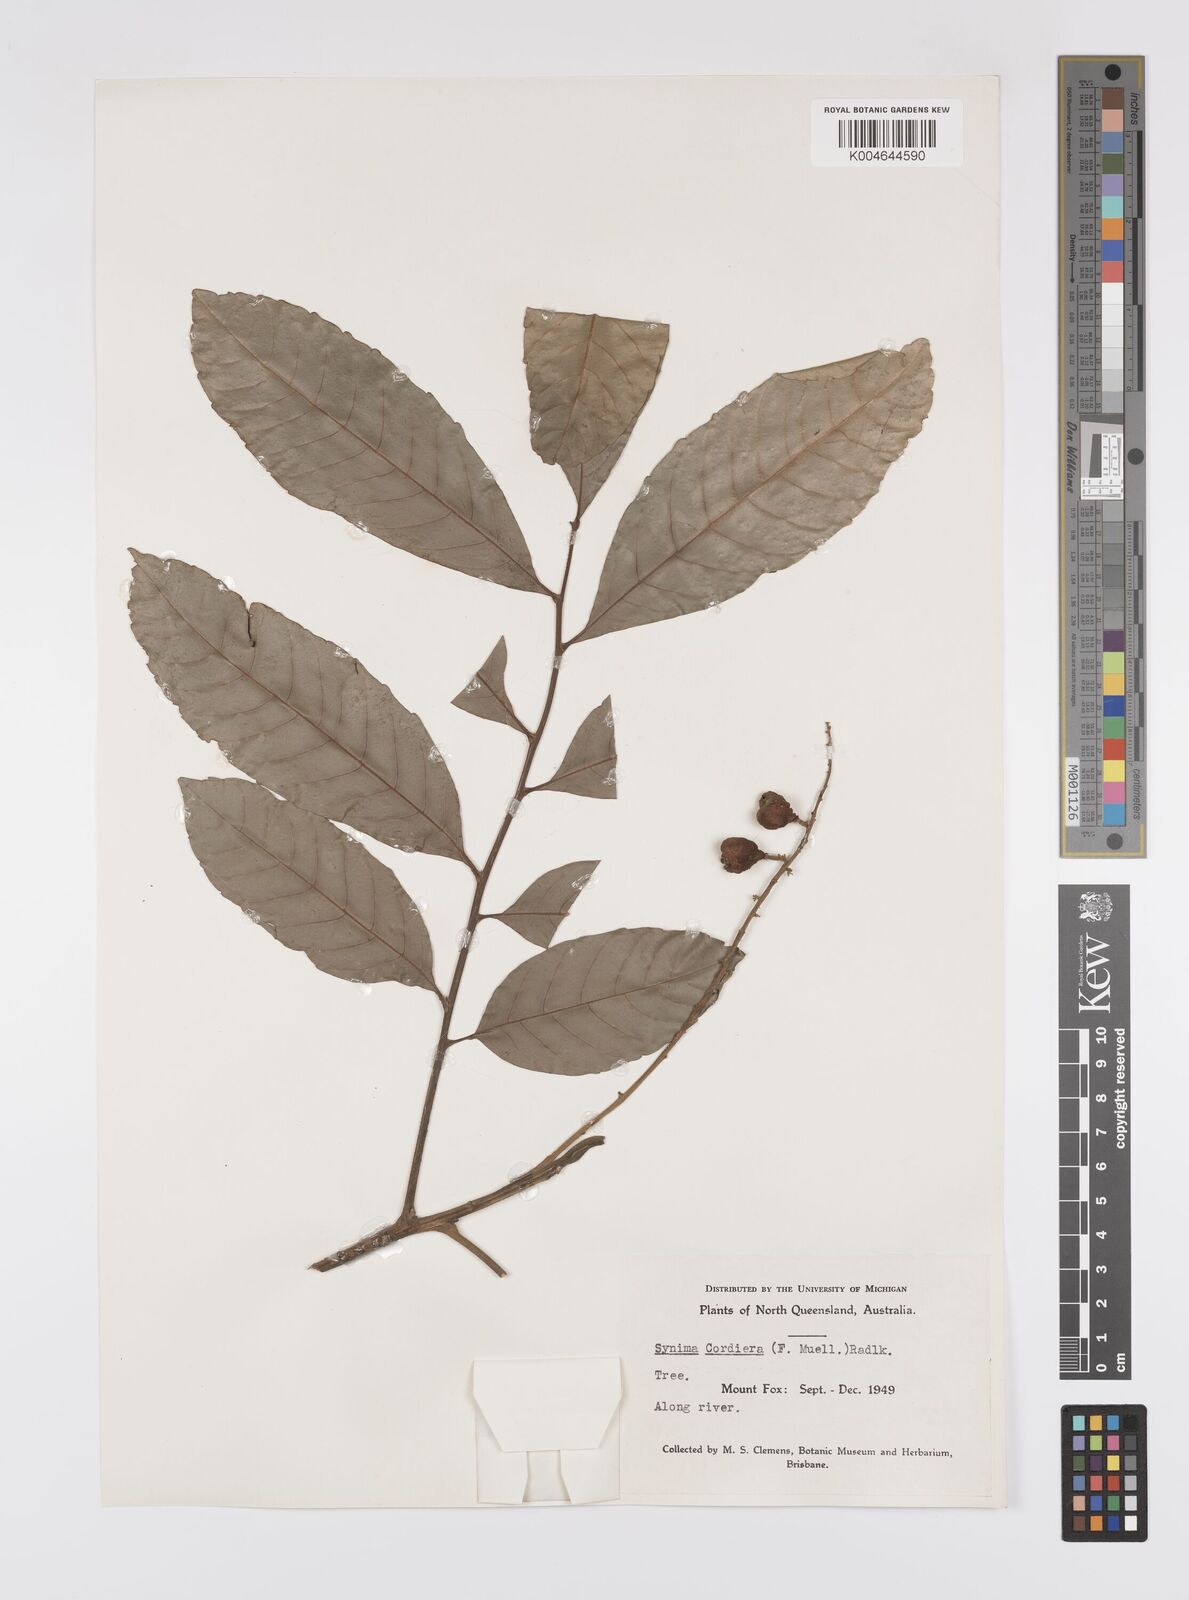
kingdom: Plantae
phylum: Tracheophyta
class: Magnoliopsida
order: Sapindales
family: Sapindaceae
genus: Synima
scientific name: Synima
